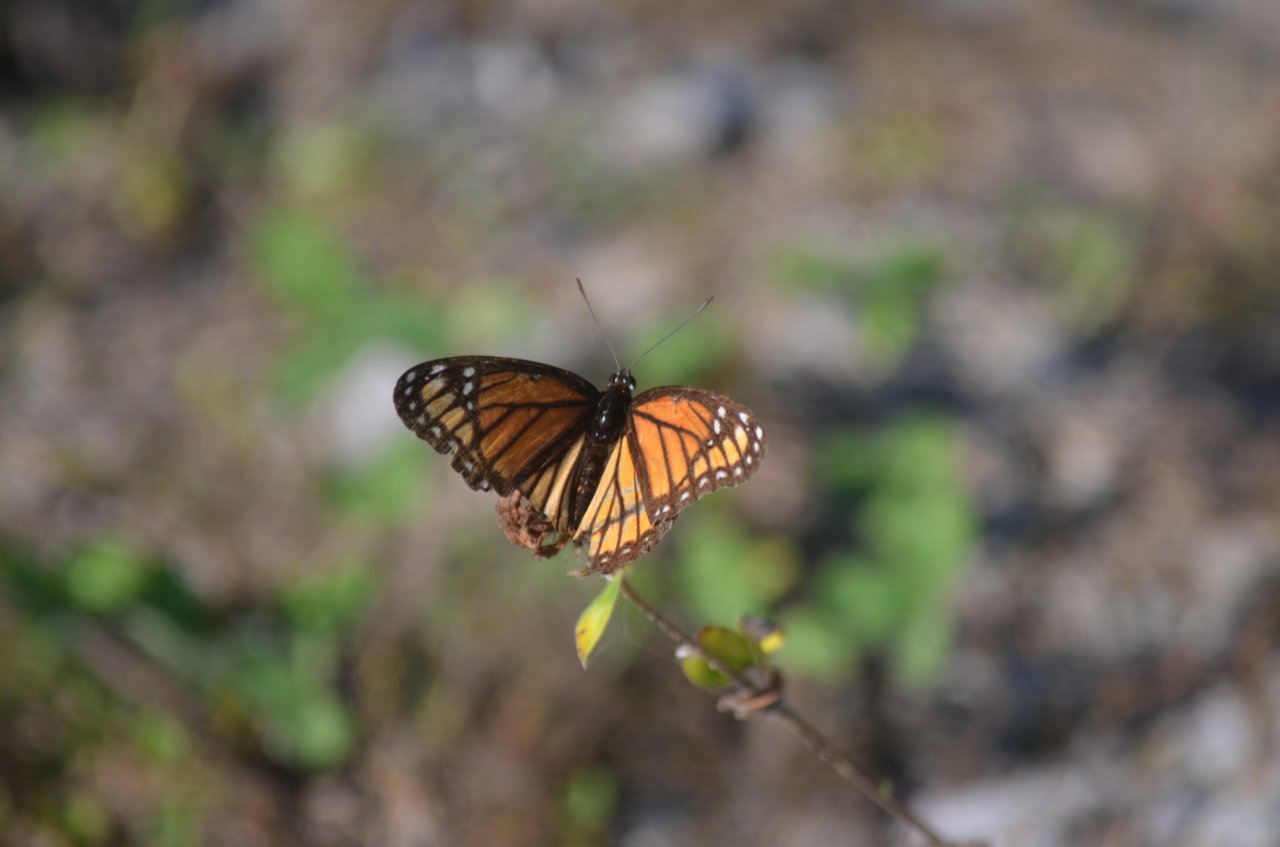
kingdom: Animalia
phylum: Arthropoda
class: Insecta
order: Lepidoptera
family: Nymphalidae
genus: Limenitis
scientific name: Limenitis archippus
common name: Viceroy
